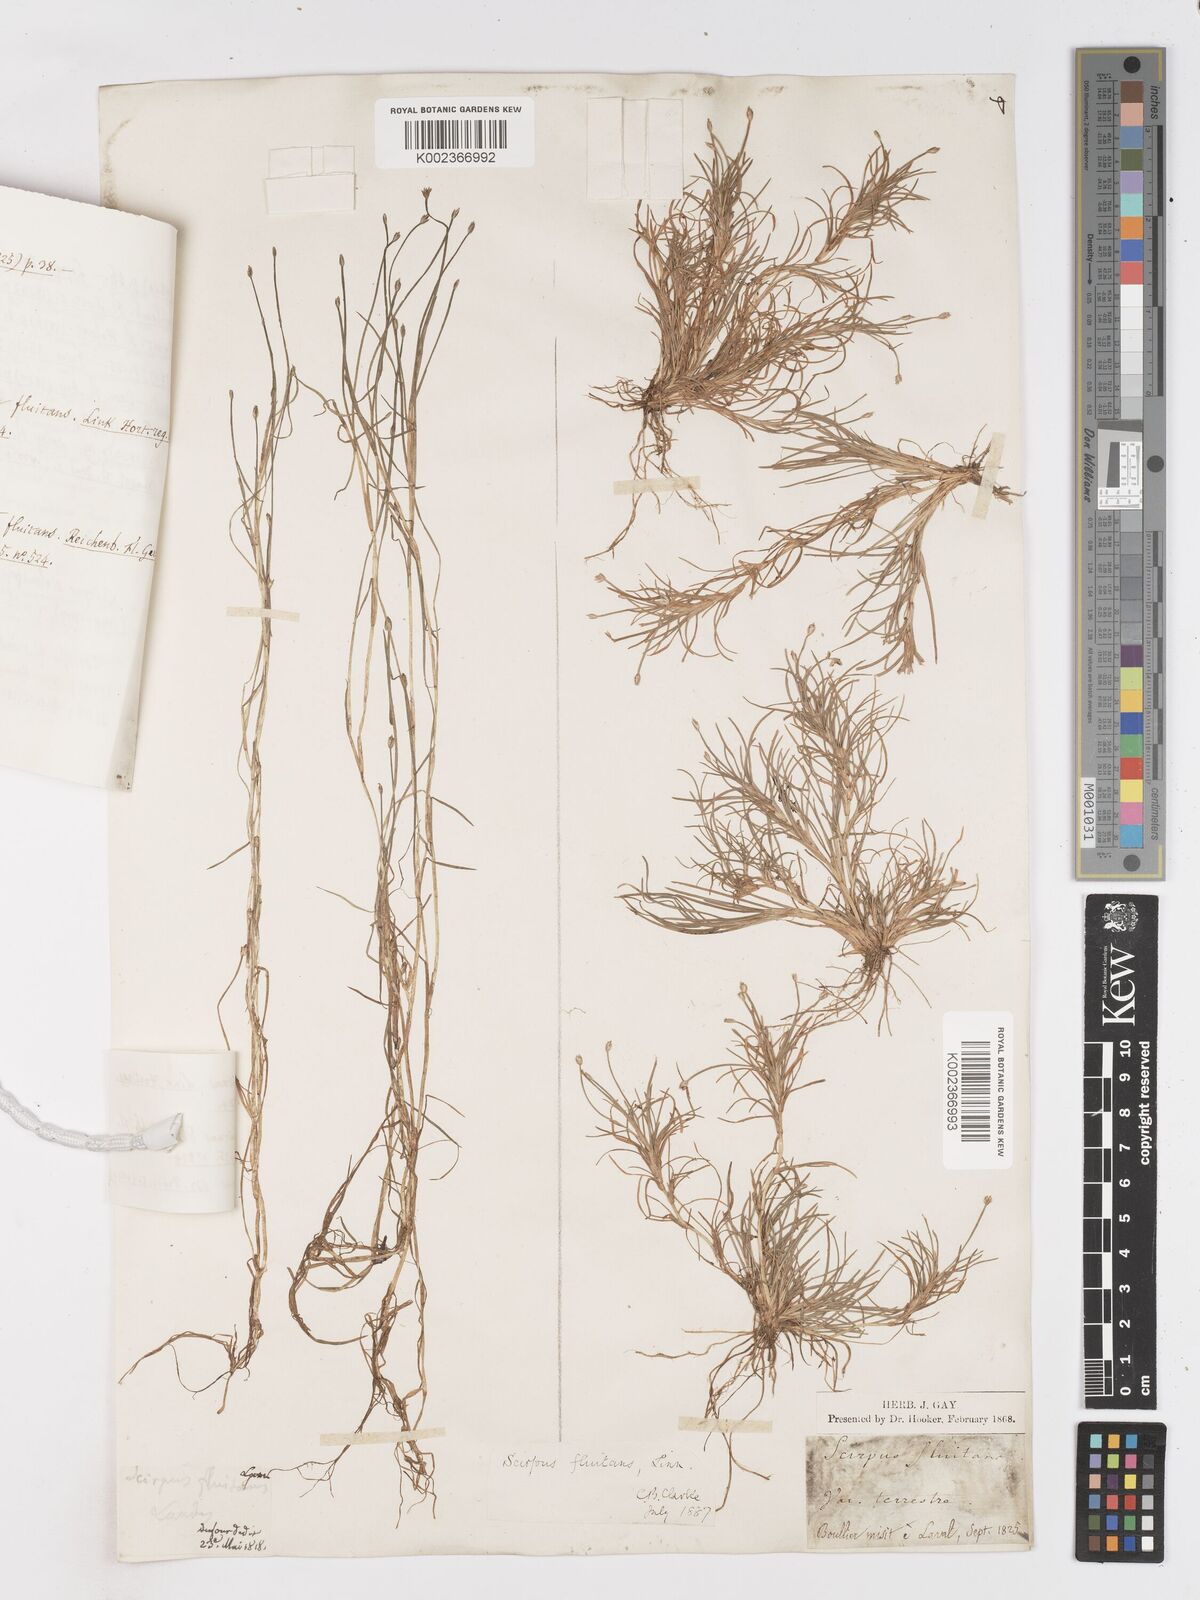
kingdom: Plantae
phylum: Tracheophyta
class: Liliopsida
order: Poales
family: Cyperaceae
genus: Isolepis
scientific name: Isolepis fluitans
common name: Floating club-rush
